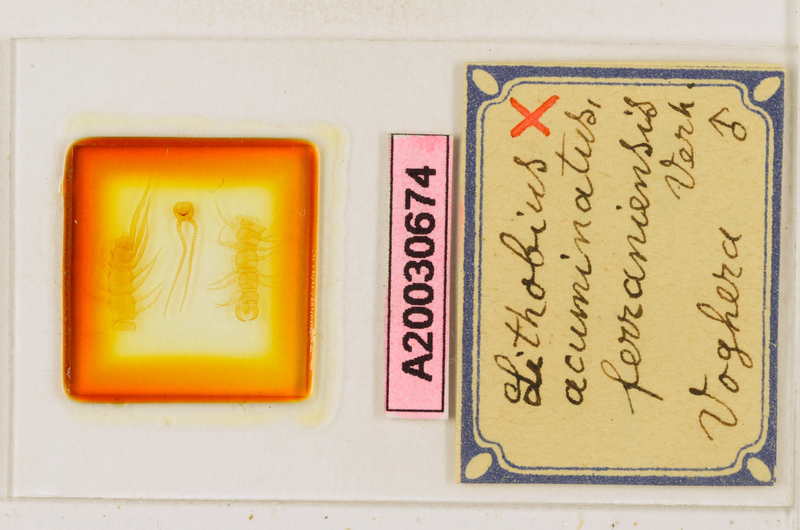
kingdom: Animalia
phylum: Arthropoda
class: Chilopoda
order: Lithobiomorpha
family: Lithobiidae
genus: Lithobius
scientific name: Lithobius cassinensis
